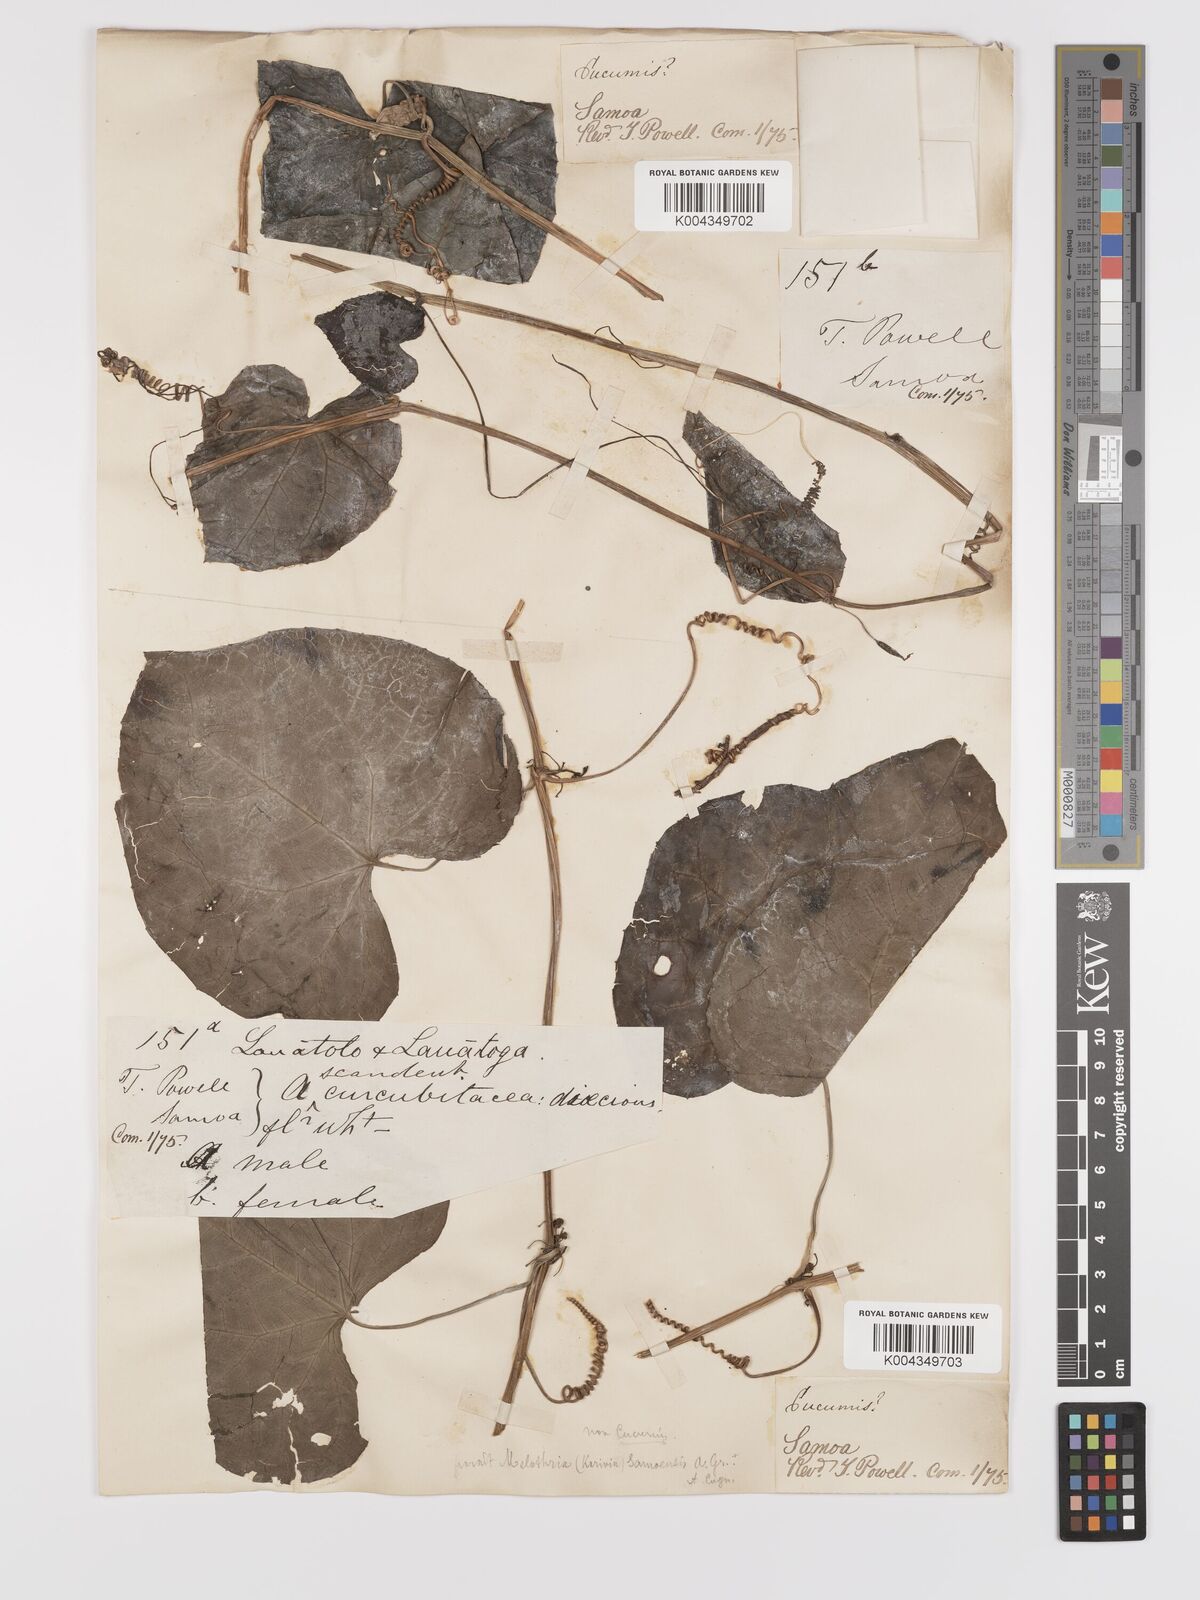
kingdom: Plantae
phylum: Tracheophyta
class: Magnoliopsida
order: Cucurbitales
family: Cucurbitaceae
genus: Zehneria
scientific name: Zehneria
